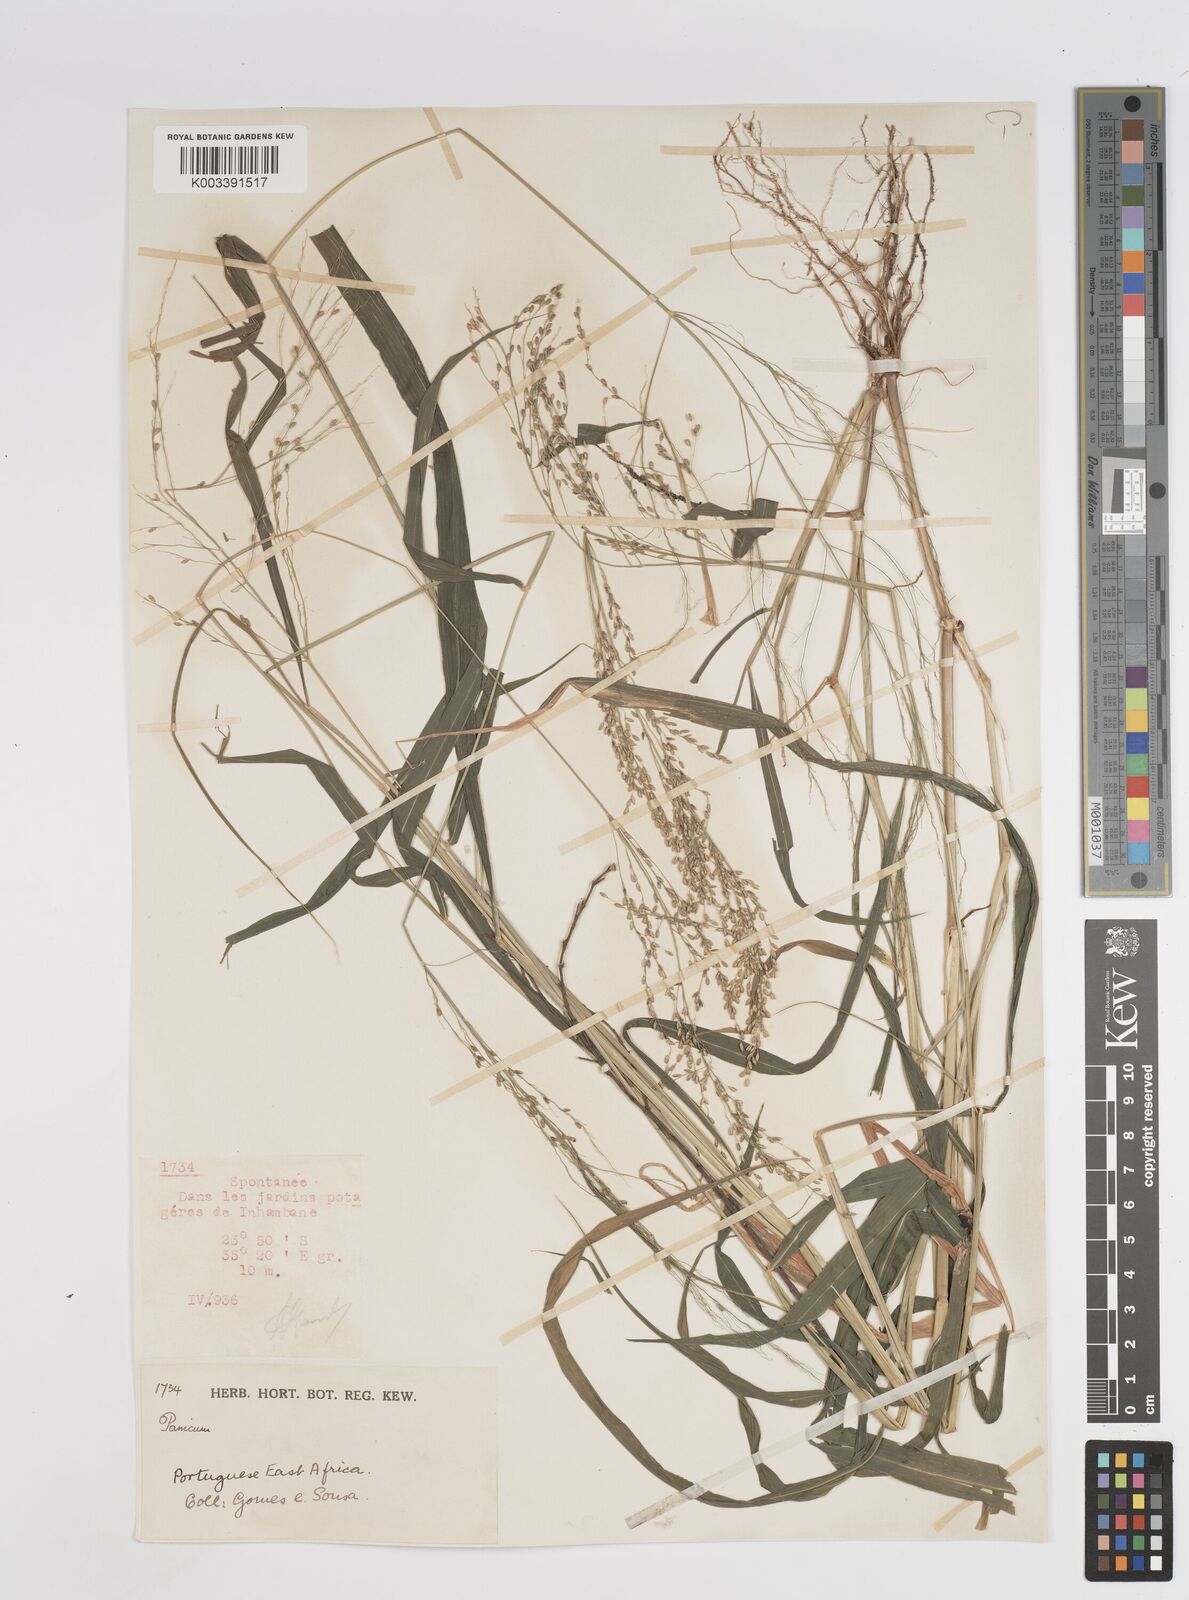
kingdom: Plantae
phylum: Tracheophyta
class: Liliopsida
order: Poales
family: Poaceae
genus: Megathyrsus
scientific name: Megathyrsus maximus
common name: Guineagrass
